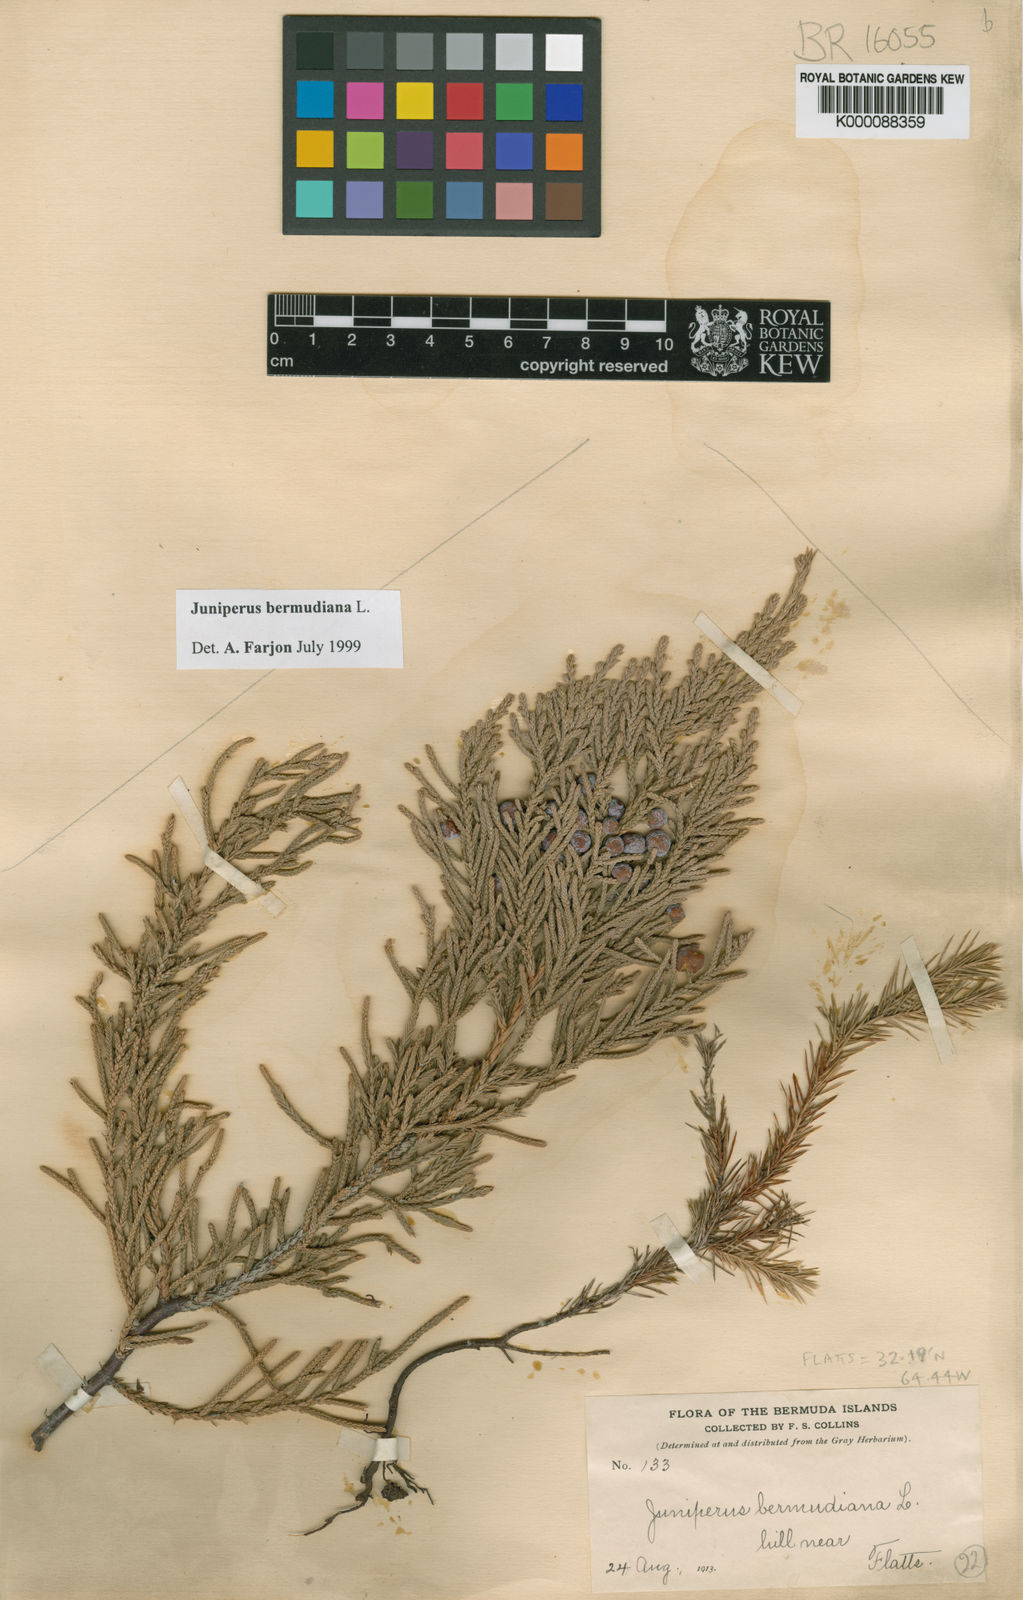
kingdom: Plantae
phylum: Tracheophyta
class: Pinopsida
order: Pinales
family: Cupressaceae
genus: Juniperus
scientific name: Juniperus bermudiana
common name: Bermuda juniper
